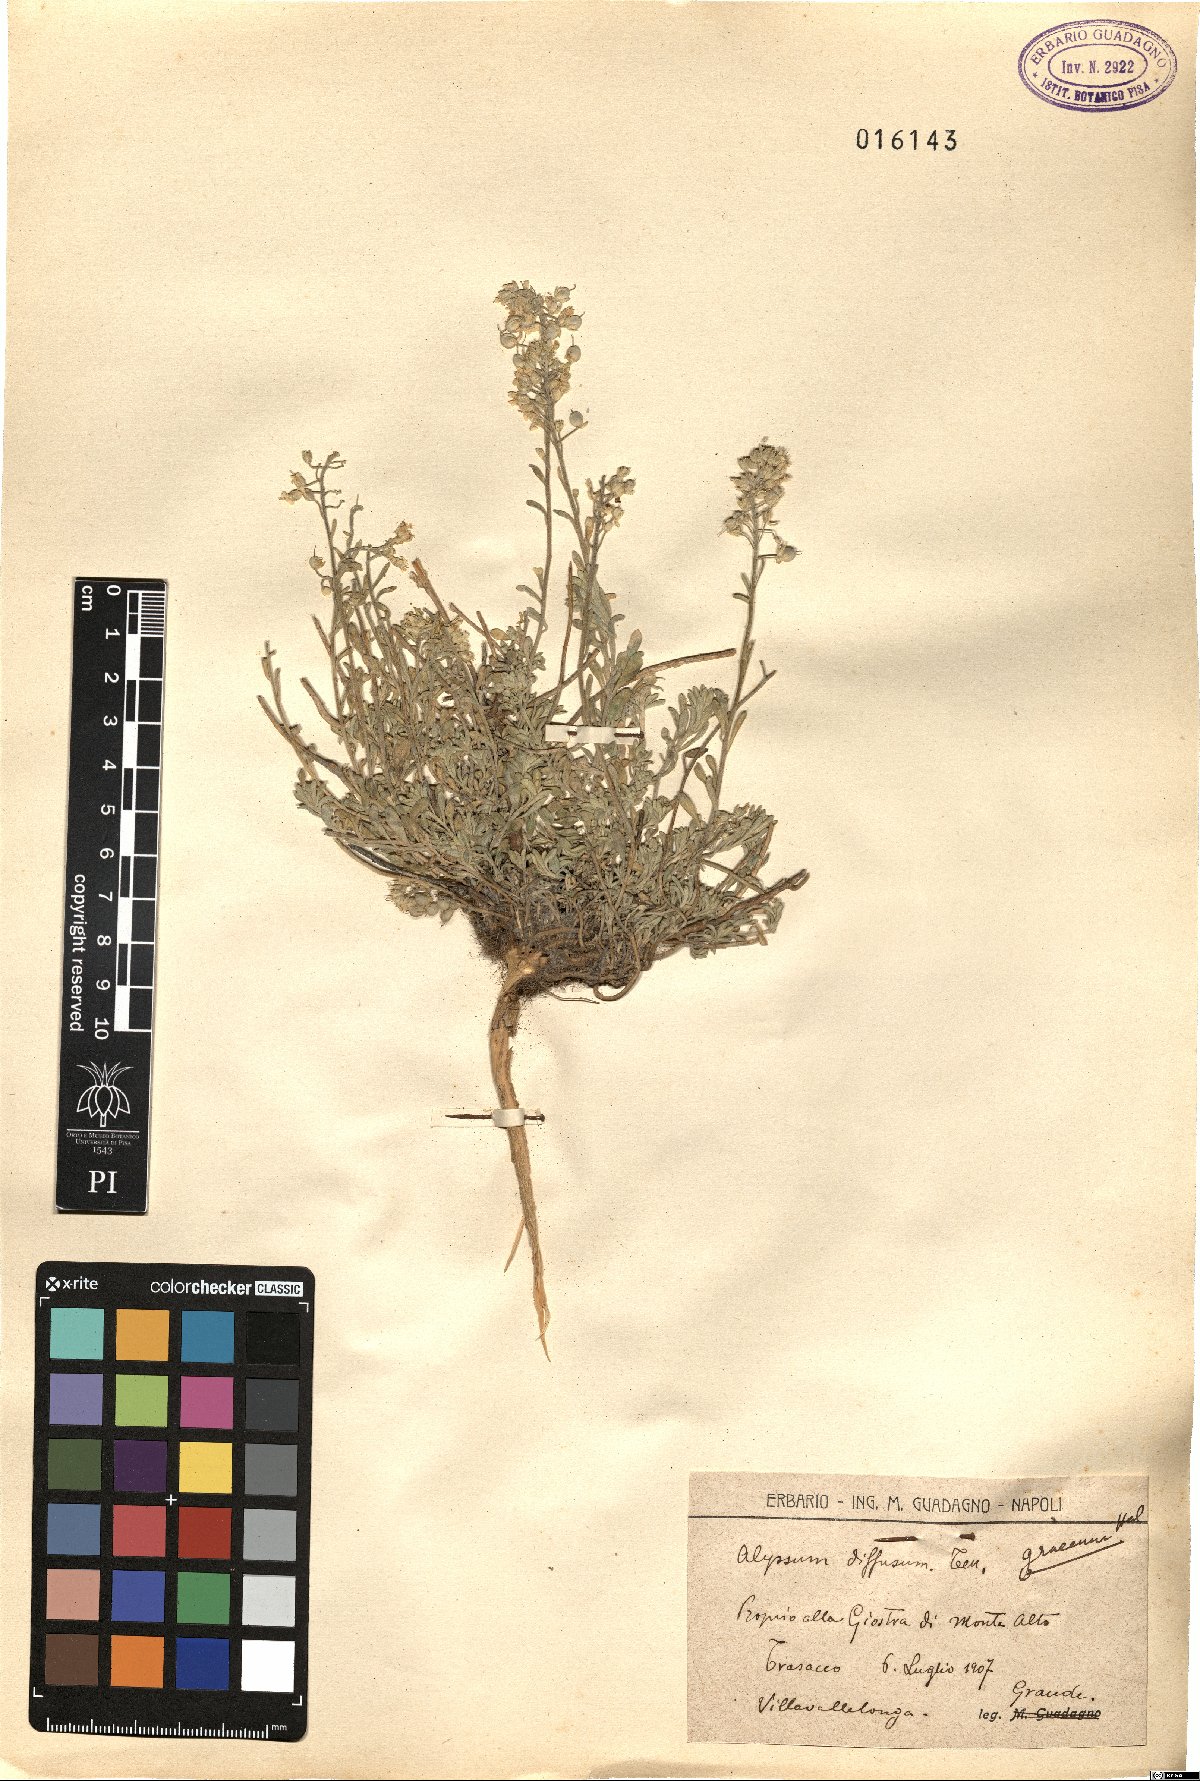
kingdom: Plantae
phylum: Tracheophyta
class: Magnoliopsida
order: Brassicales
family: Brassicaceae
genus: Alyssum
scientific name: Alyssum diffusum
